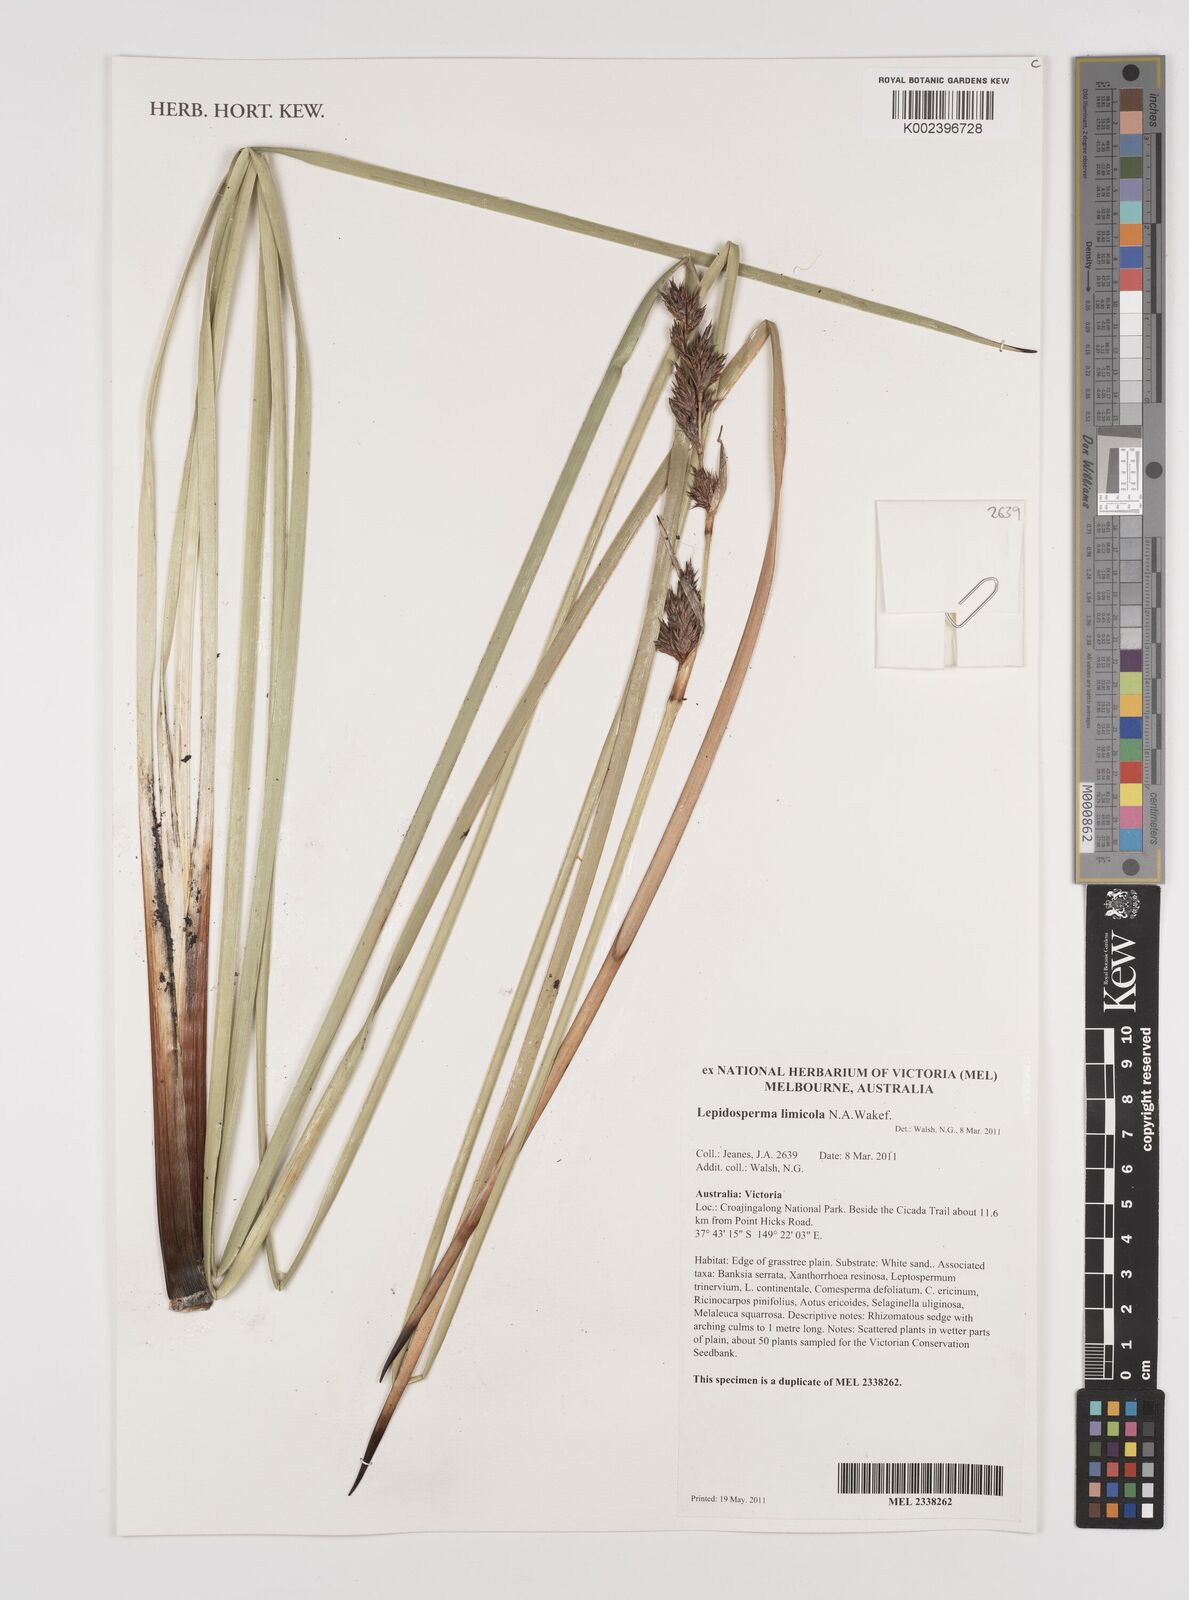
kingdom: Plantae
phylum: Tracheophyta
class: Liliopsida
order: Poales
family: Cyperaceae
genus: Lepidosperma
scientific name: Lepidosperma limicola
